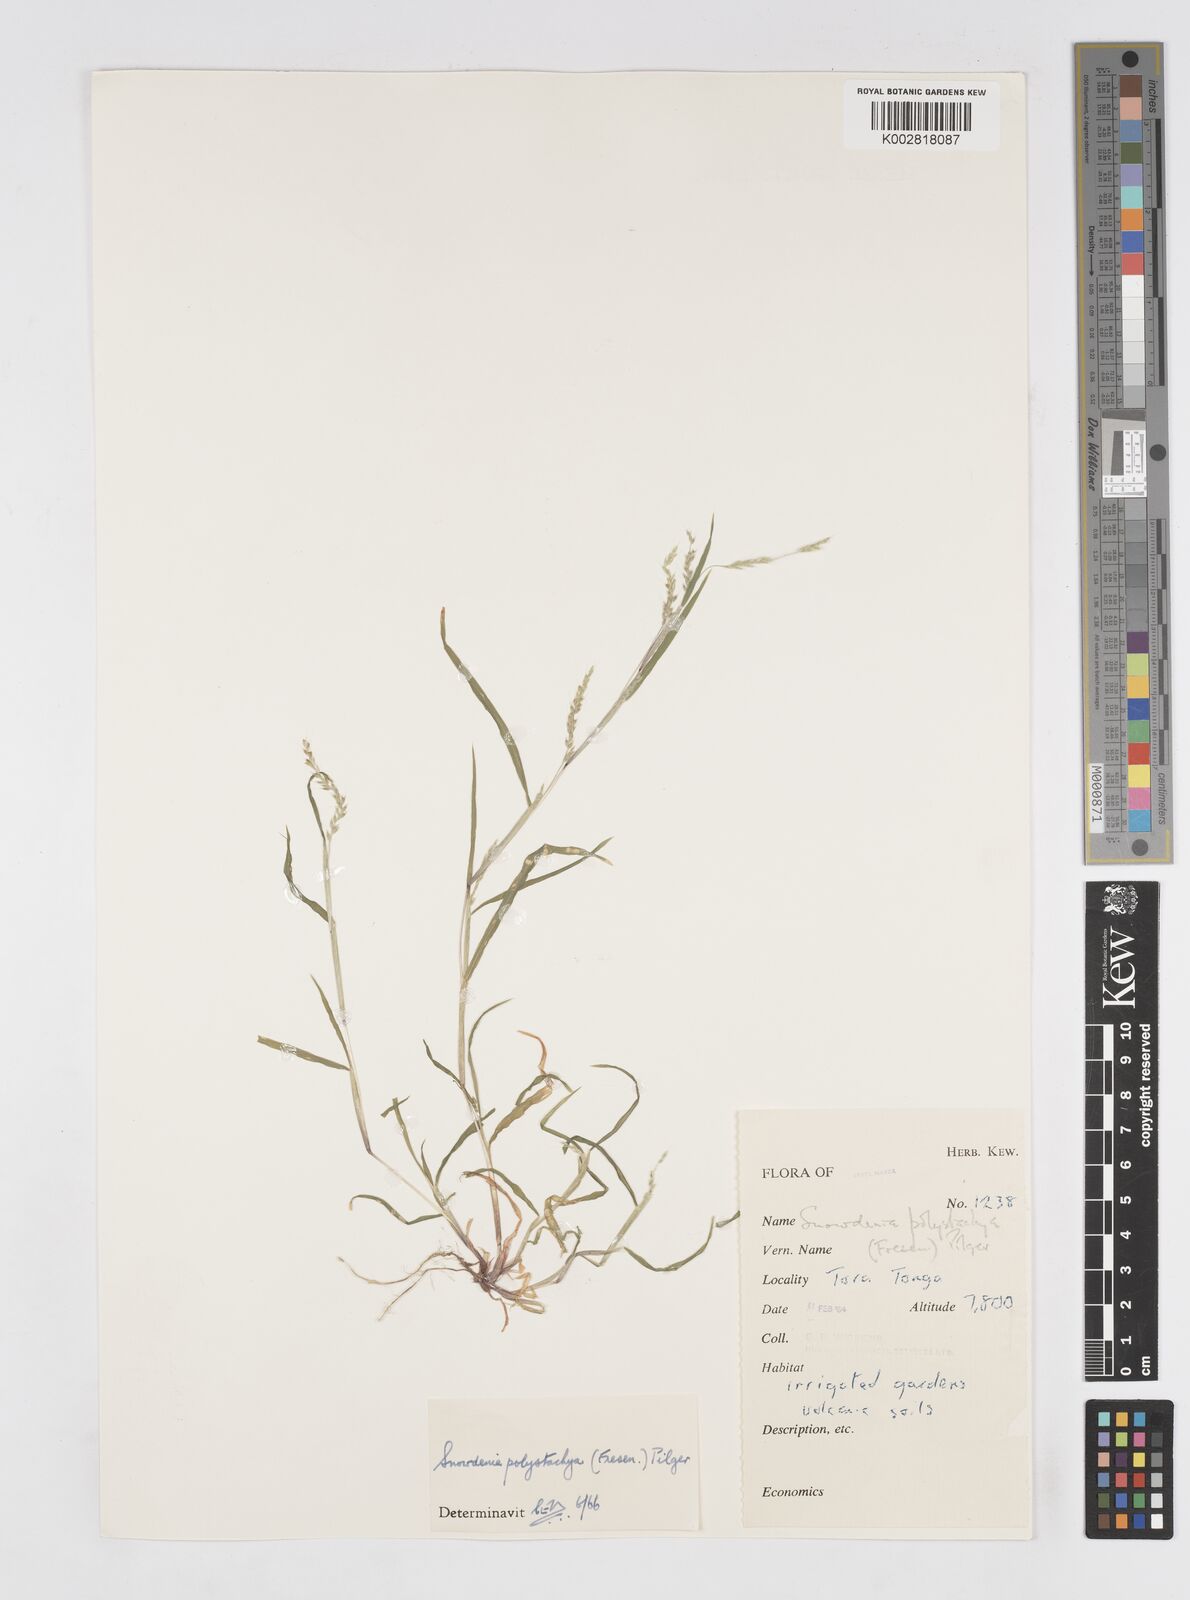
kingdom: Plantae
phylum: Tracheophyta
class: Liliopsida
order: Poales
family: Poaceae
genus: Snowdenia
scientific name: Snowdenia polystachya
